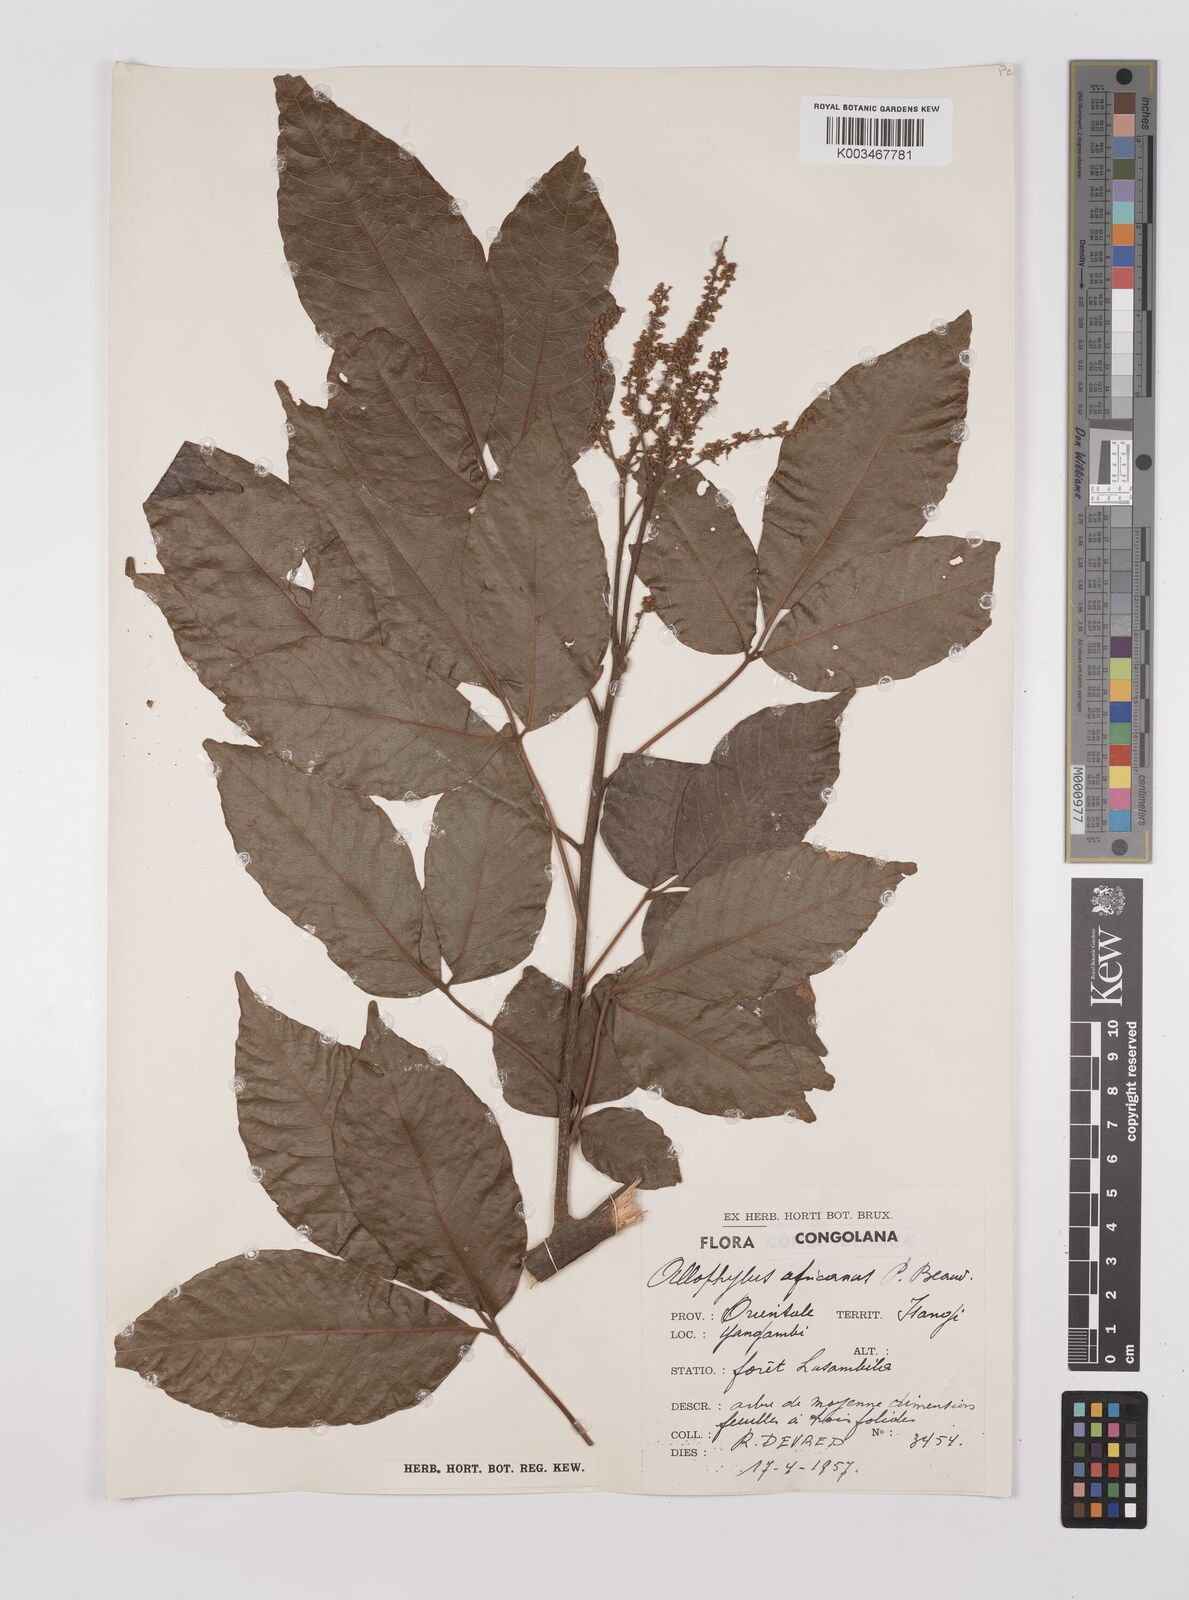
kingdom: Plantae
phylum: Tracheophyta
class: Magnoliopsida
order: Sapindales
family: Sapindaceae
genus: Allophylus
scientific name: Allophylus africanus
